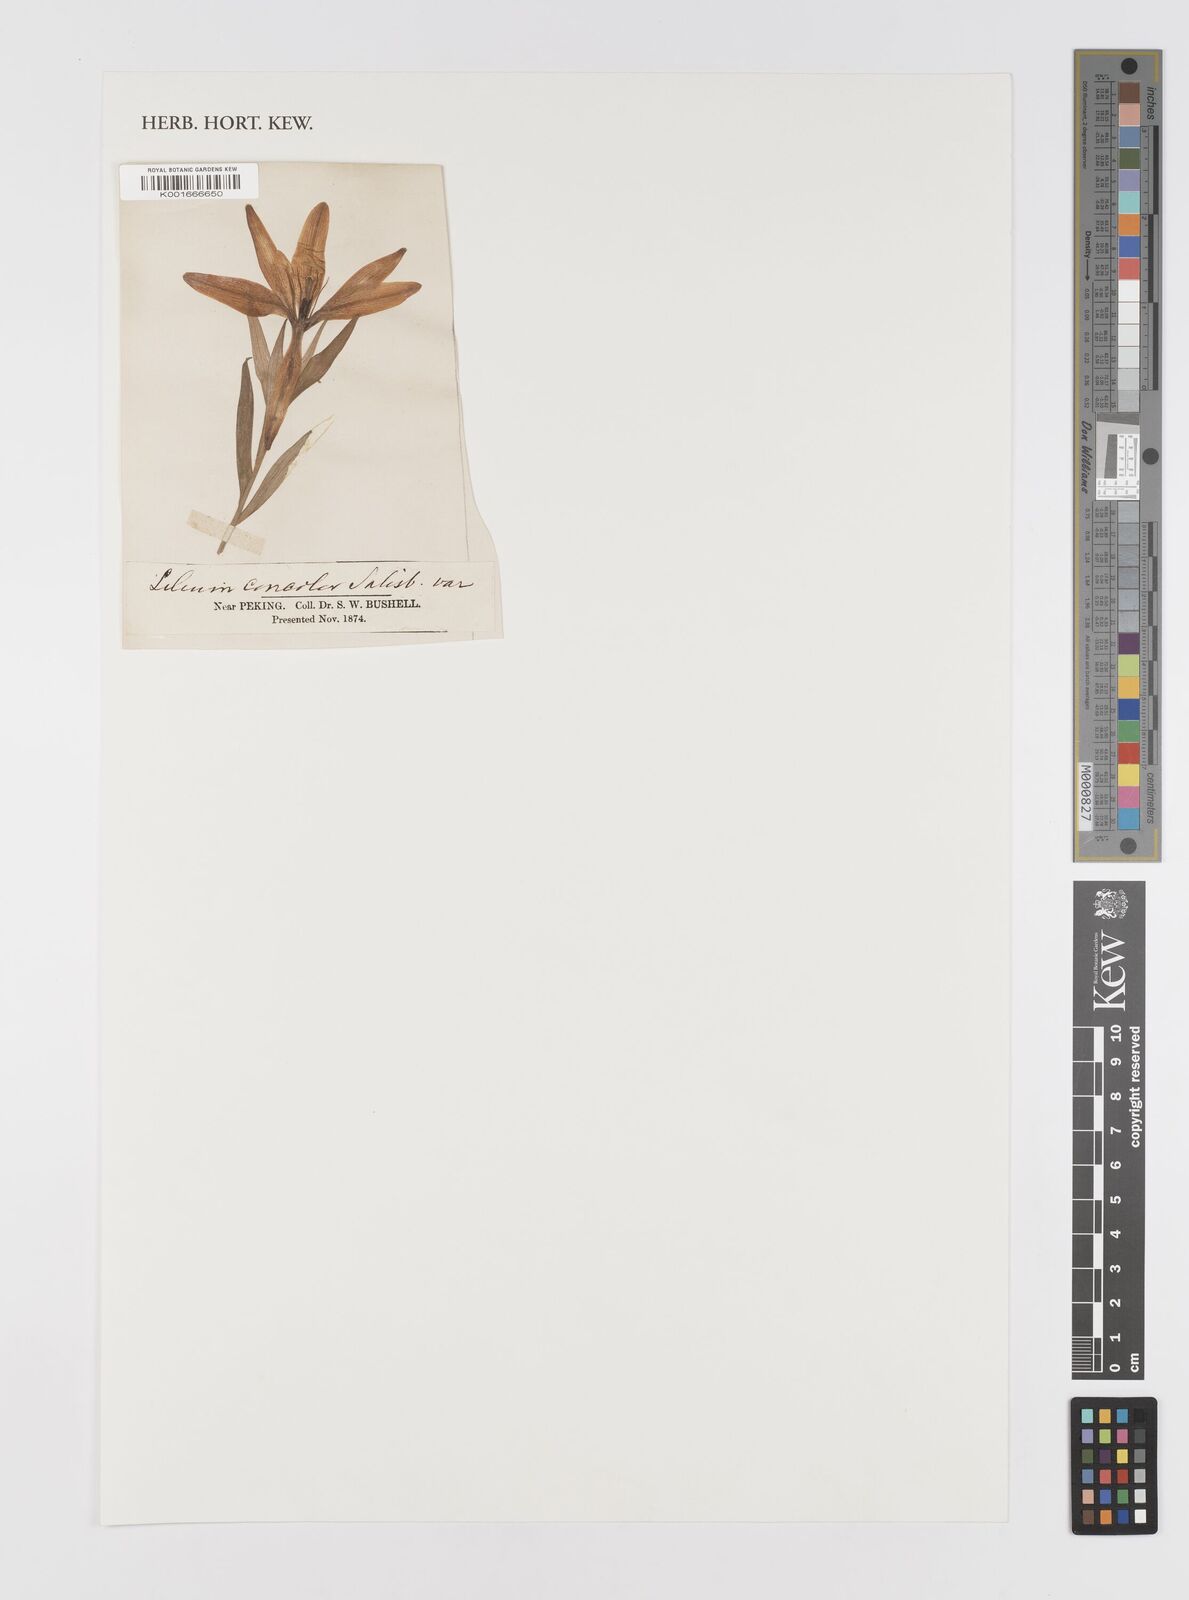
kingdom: Plantae
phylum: Tracheophyta
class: Liliopsida
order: Liliales
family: Liliaceae
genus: Lilium
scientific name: Lilium concolor
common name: Morning-star lily
